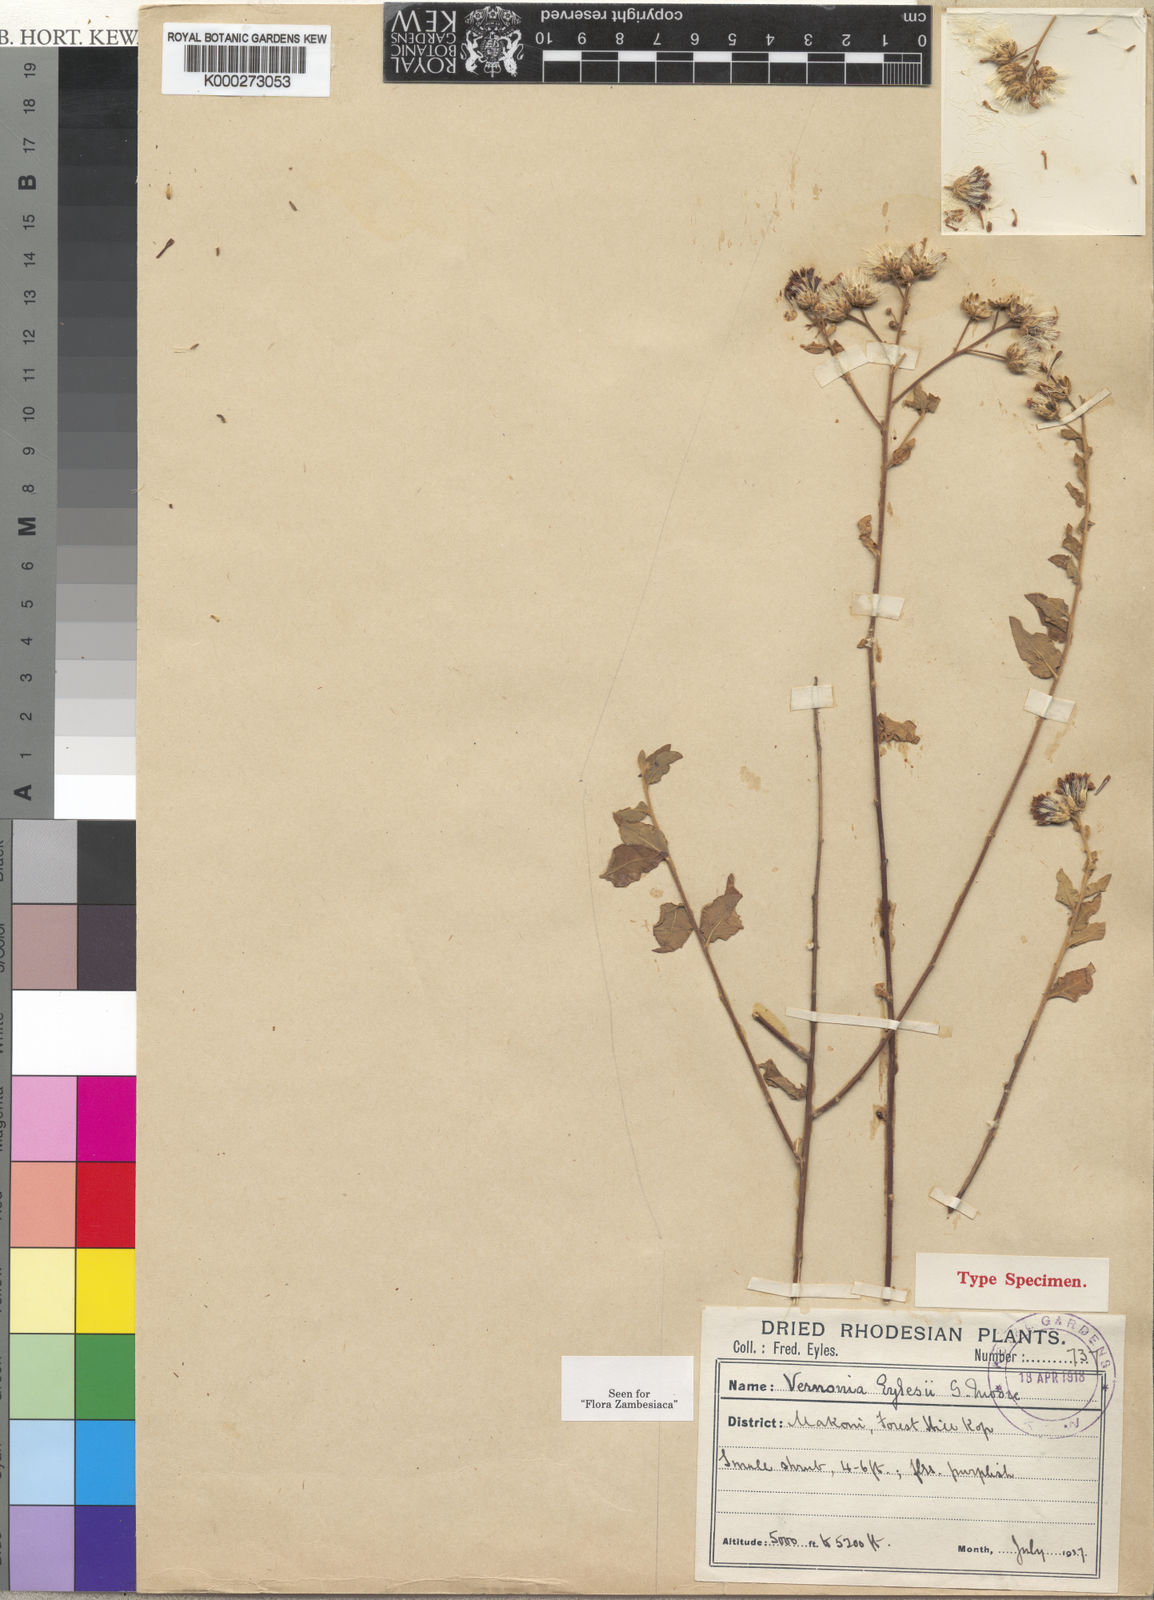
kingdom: Plantae
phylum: Tracheophyta
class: Magnoliopsida
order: Asterales
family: Asteraceae
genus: Vernonia
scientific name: Vernonia eylesii
